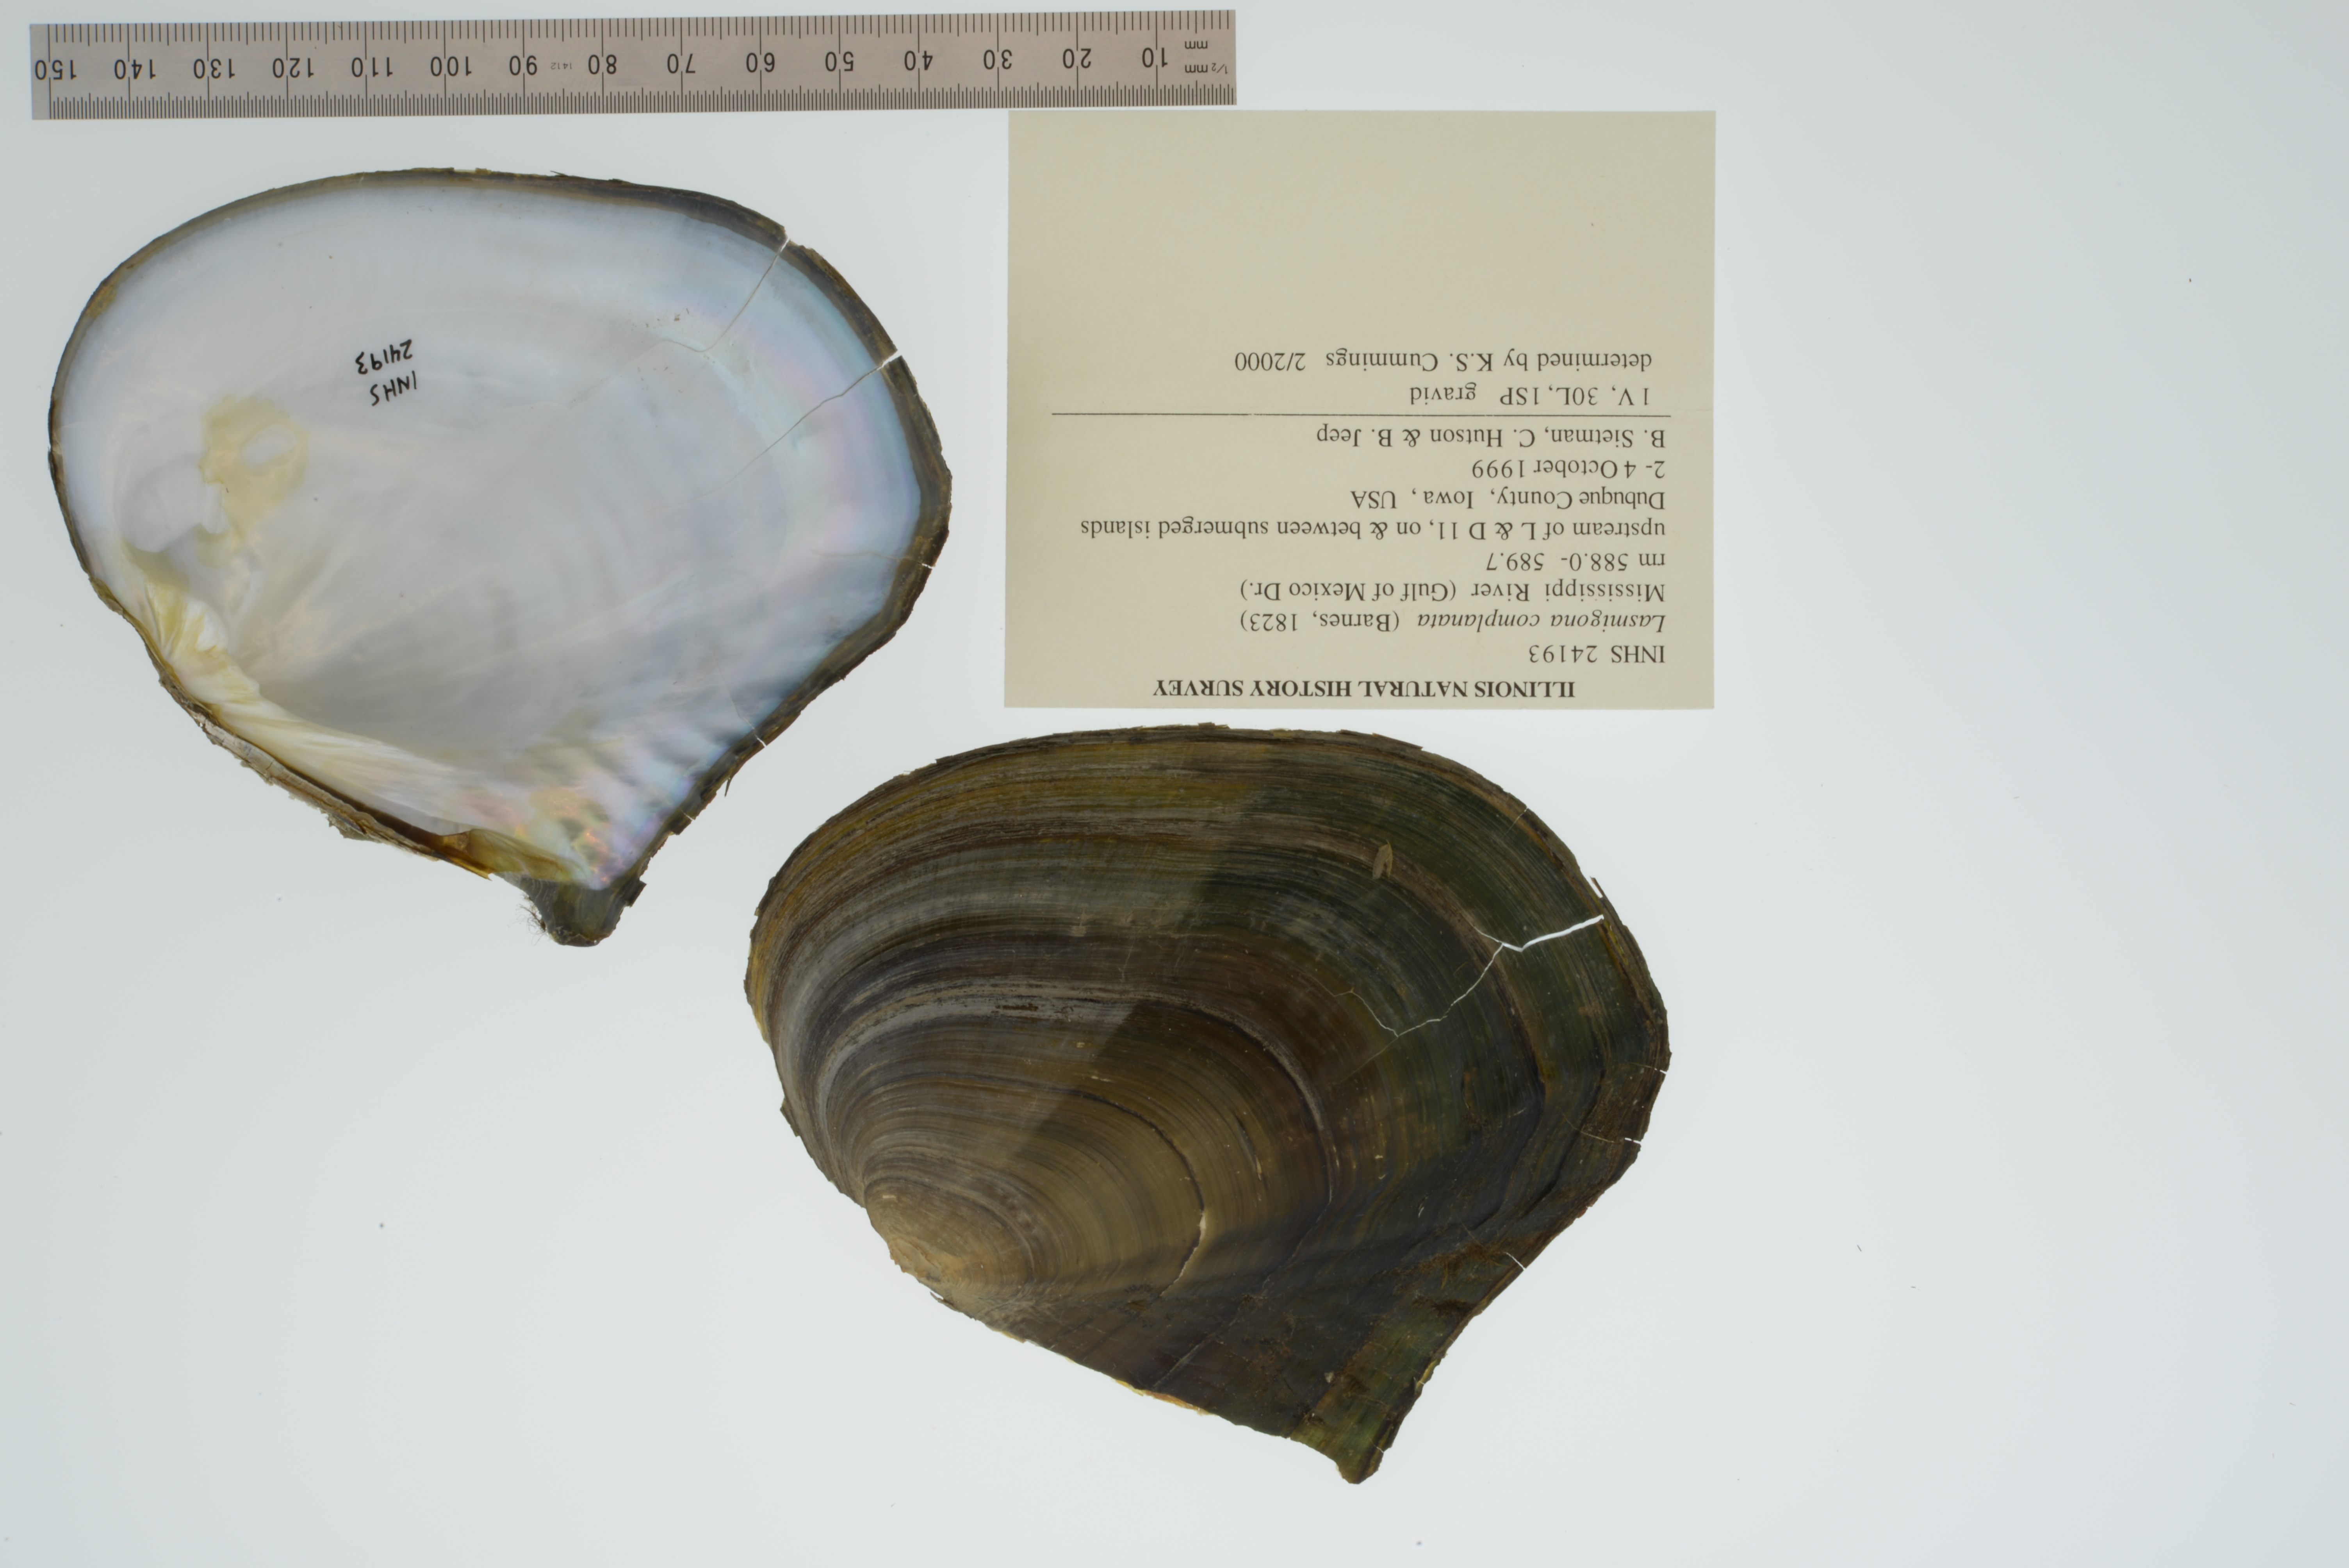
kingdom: Animalia
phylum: Mollusca
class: Bivalvia
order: Unionida
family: Unionidae
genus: Lasmigona
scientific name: Lasmigona complanata
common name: White heelsplitter
